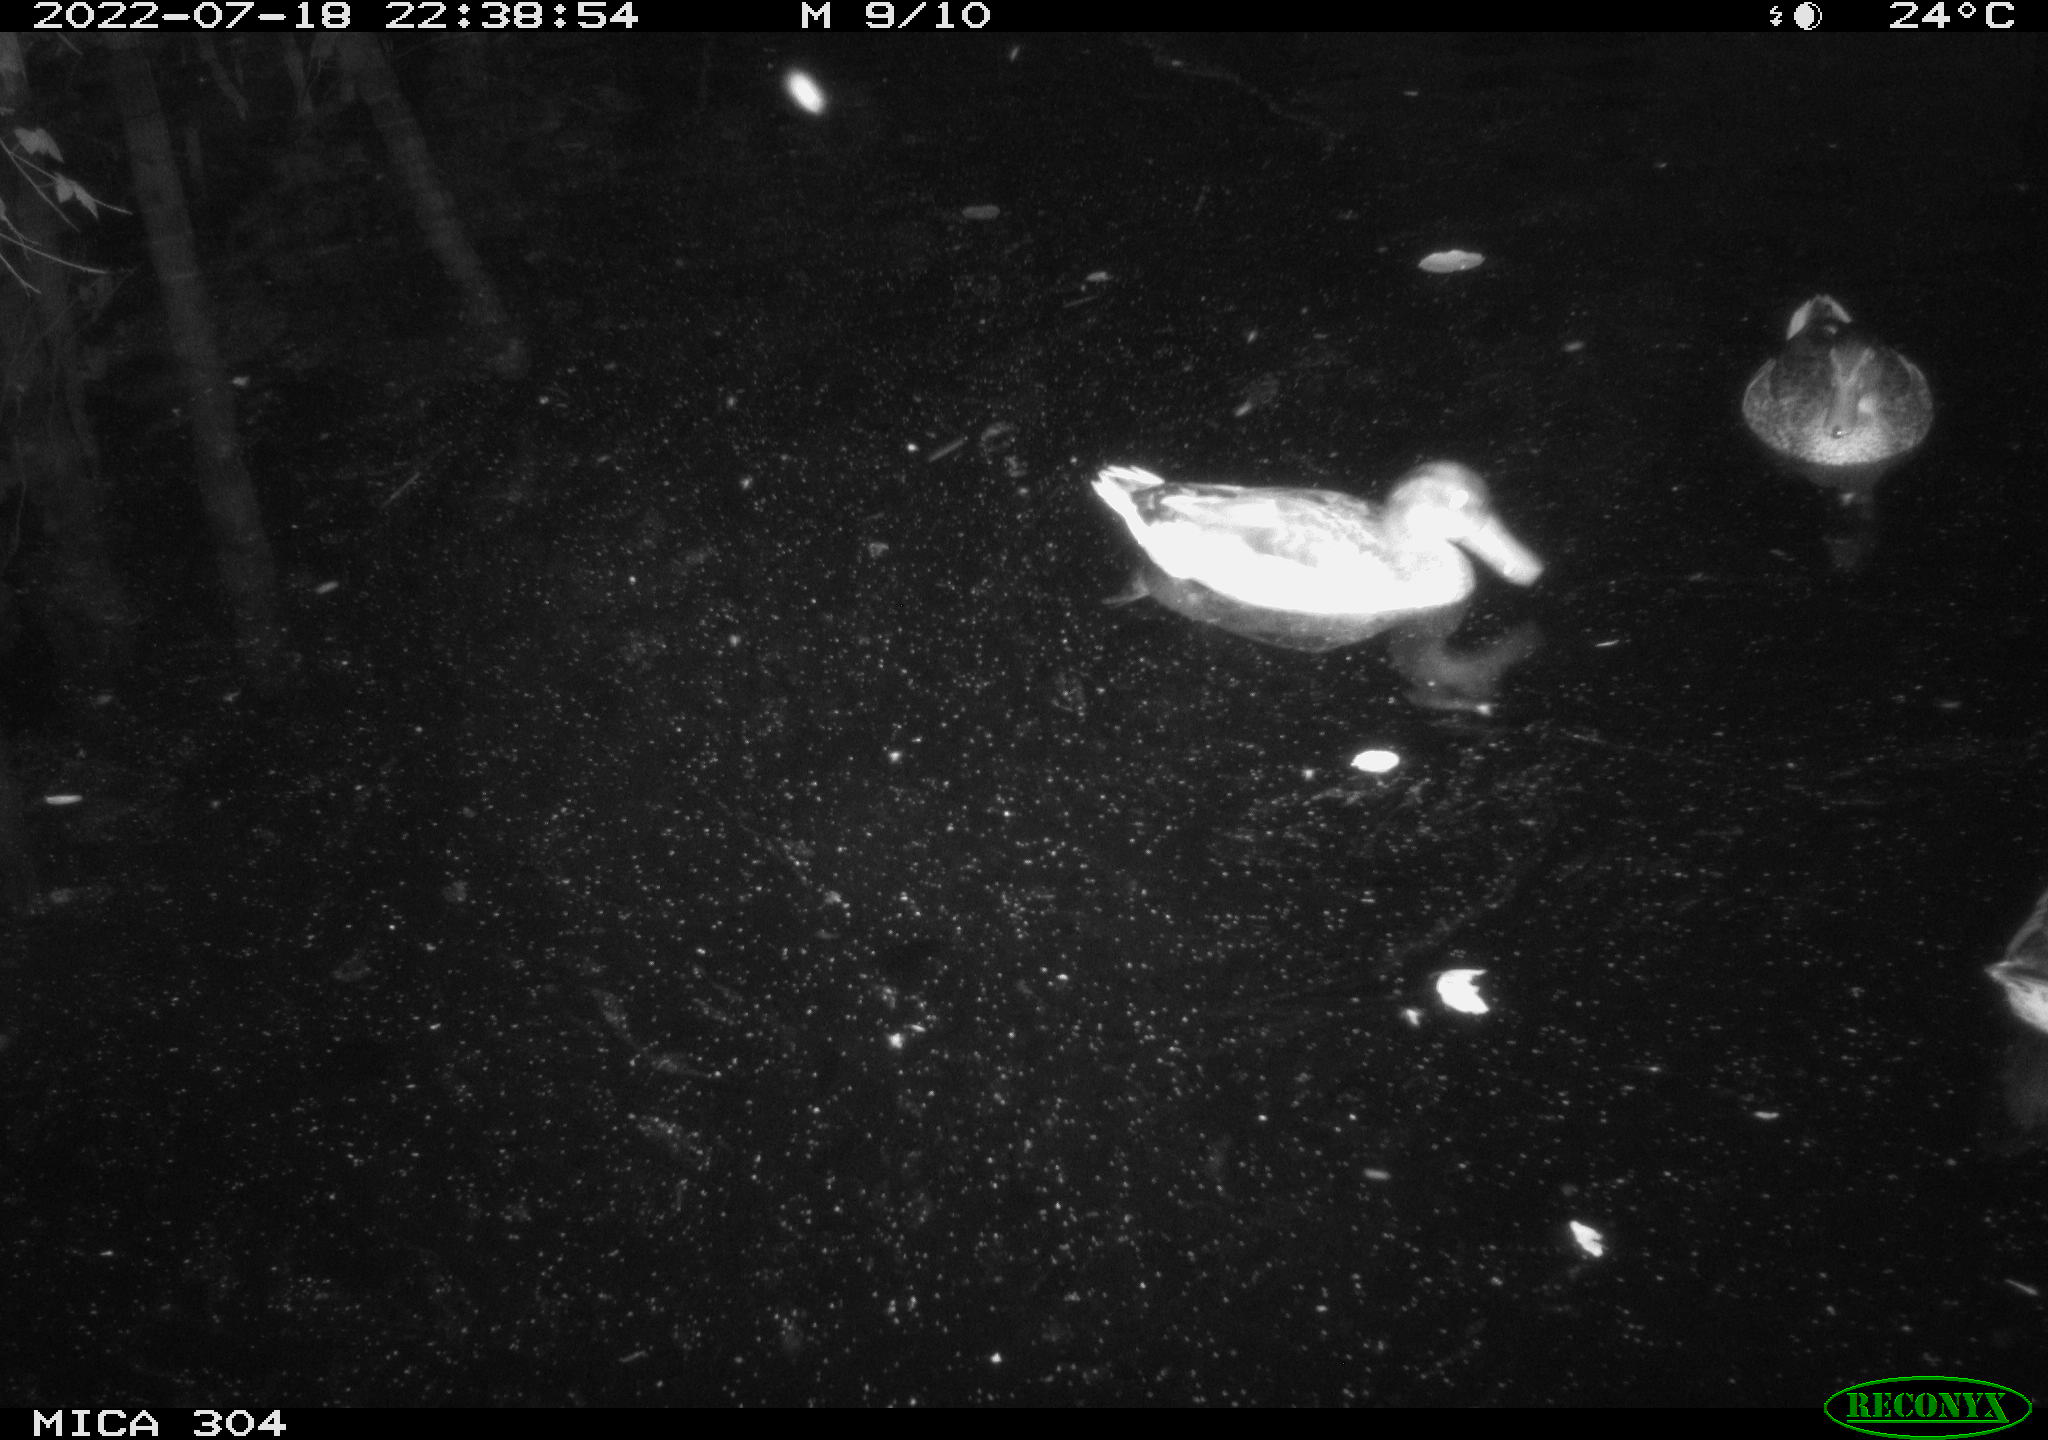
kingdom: Animalia
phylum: Chordata
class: Aves
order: Anseriformes
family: Anatidae
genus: Anas
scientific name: Anas platyrhynchos
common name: Mallard
